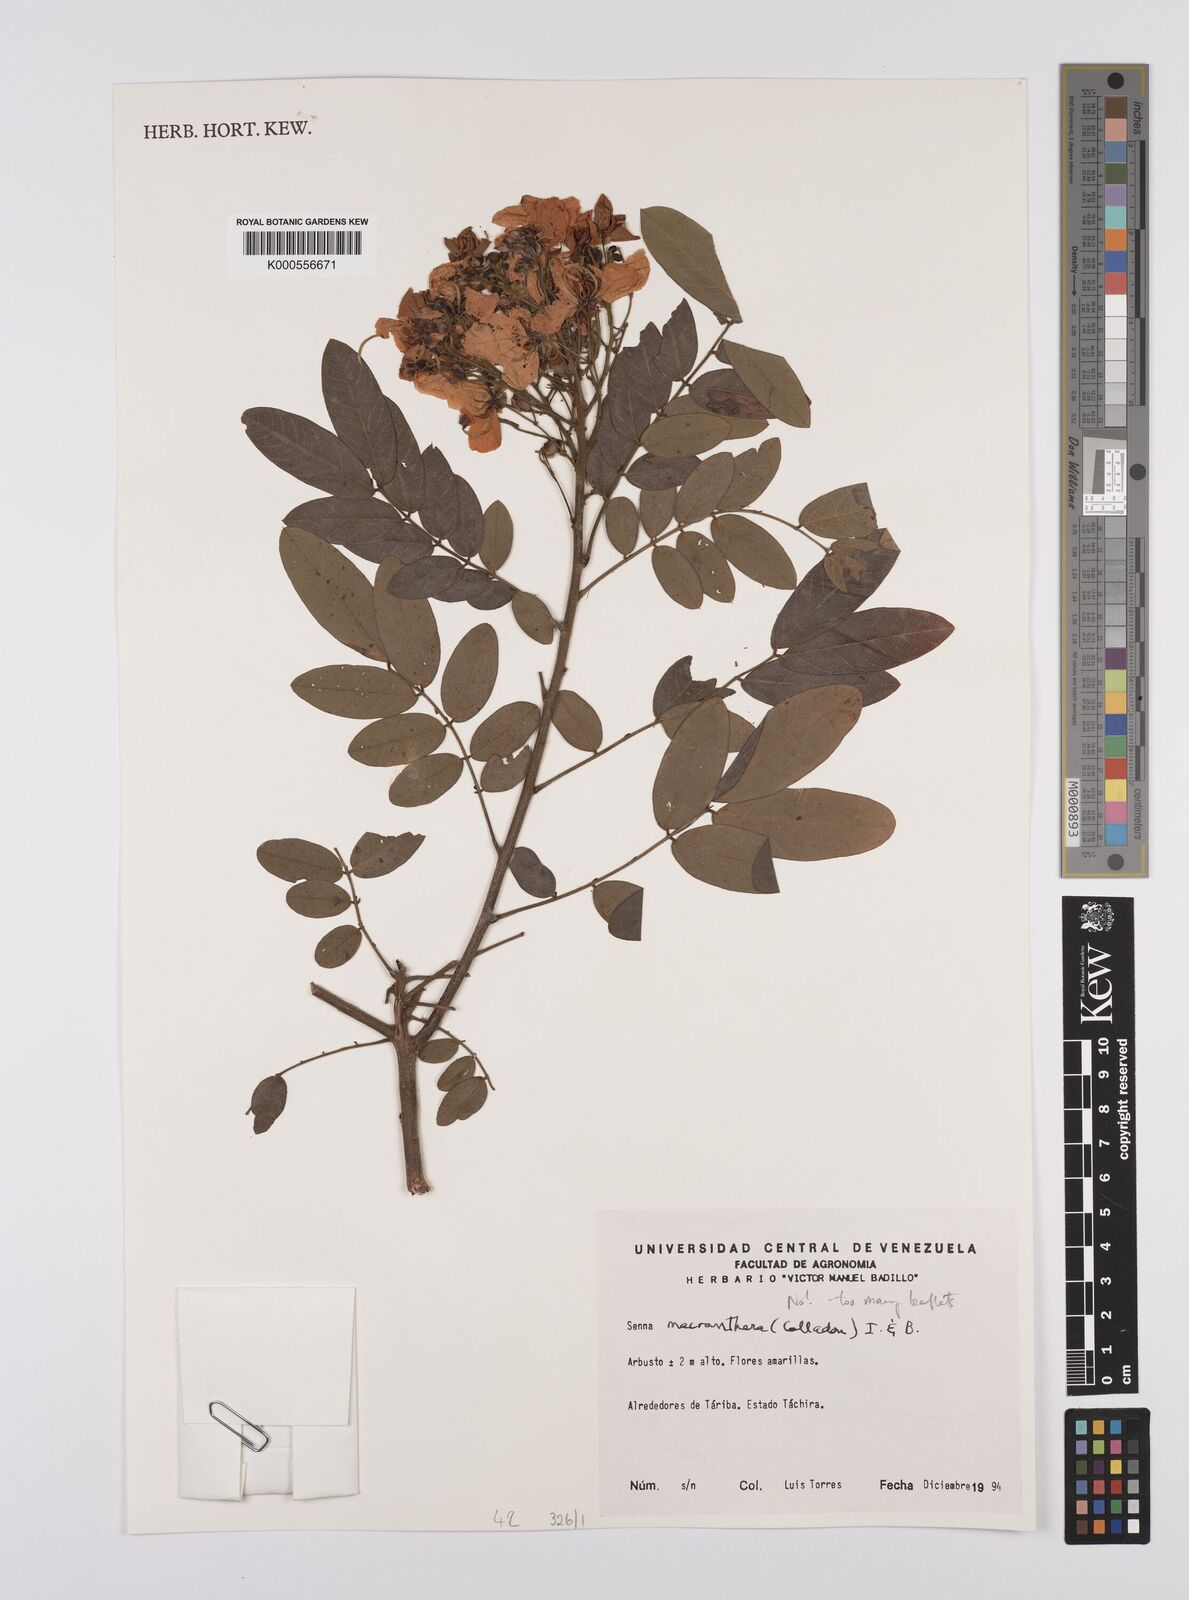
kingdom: Plantae
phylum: Tracheophyta
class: Magnoliopsida
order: Fabales
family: Fabaceae
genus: Senna
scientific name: Senna
